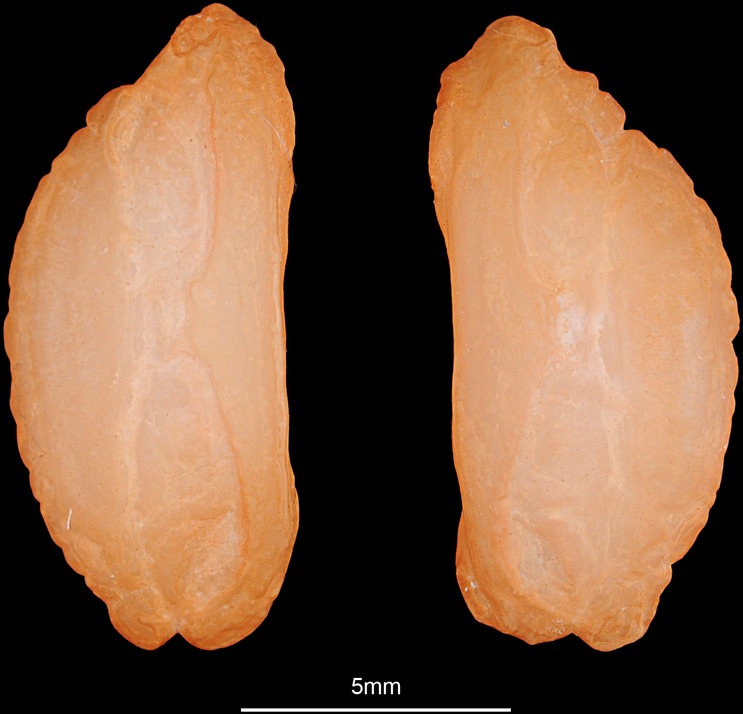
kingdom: Animalia
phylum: Chordata
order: Gadiformes
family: Lotidae
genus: Lota
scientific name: Lota lota
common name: Burbot
